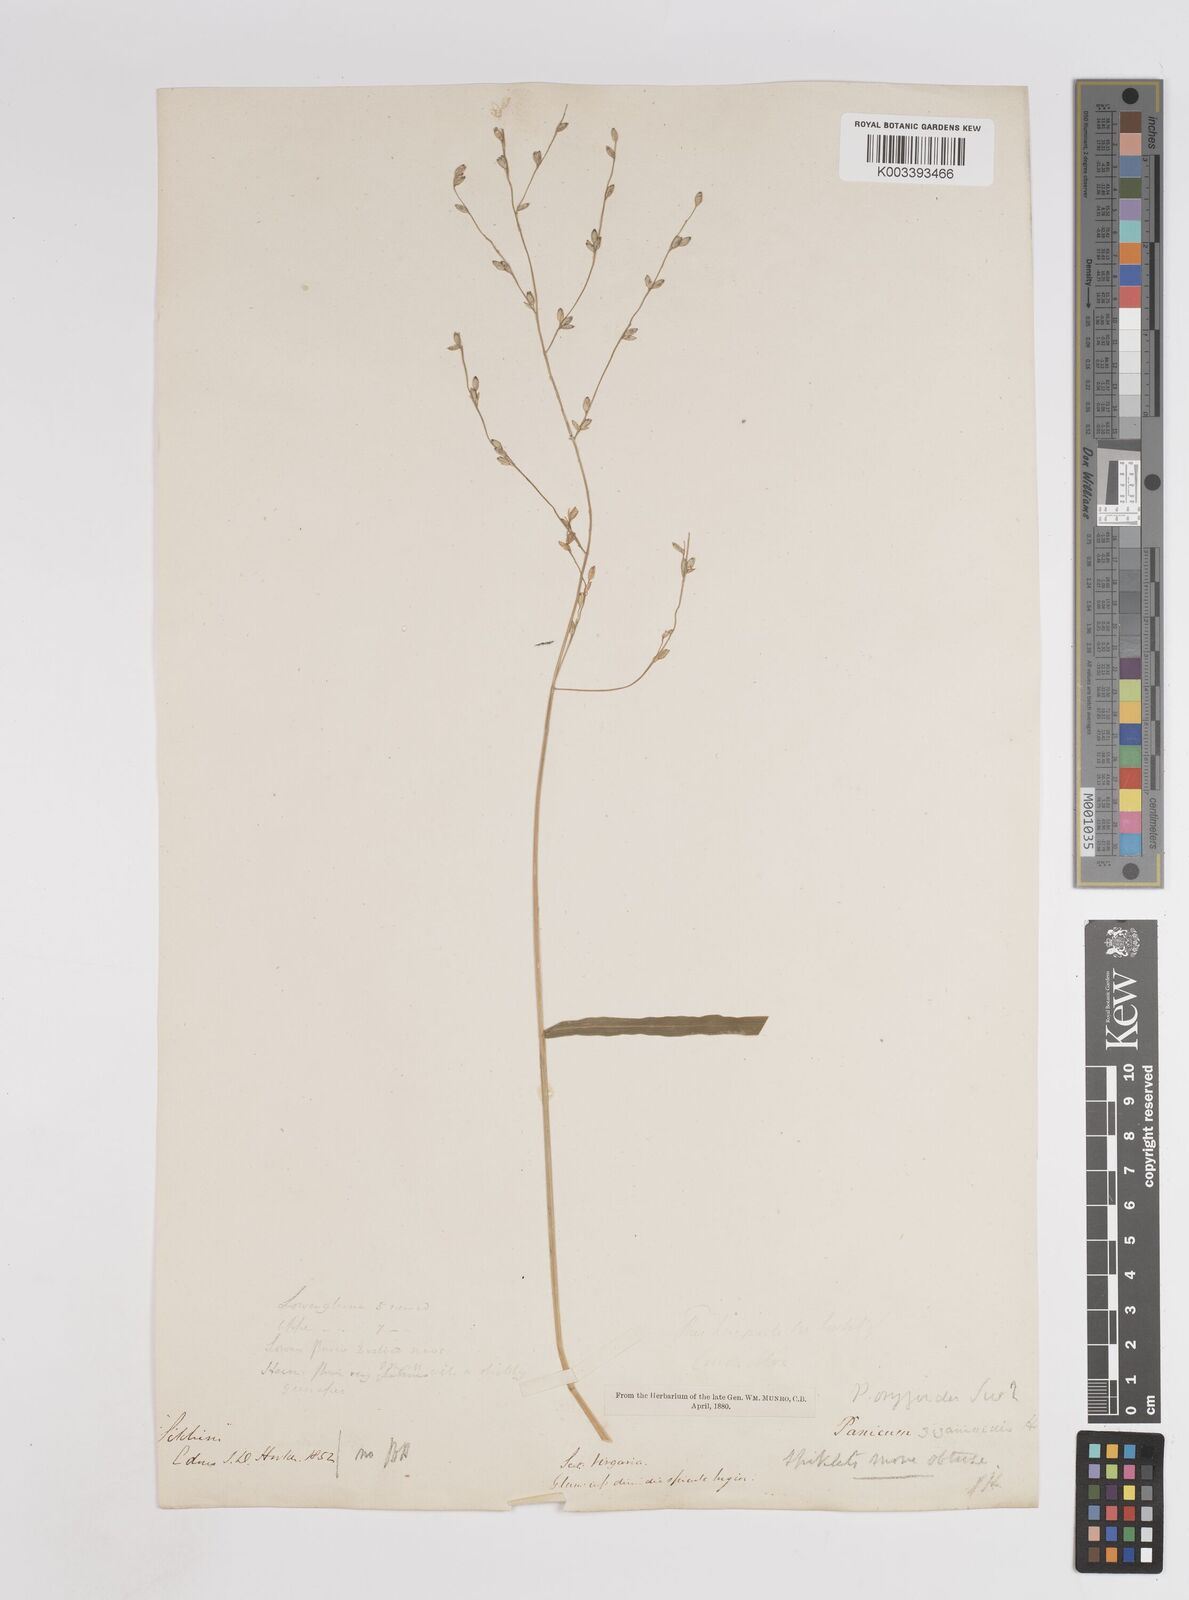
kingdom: Plantae
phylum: Tracheophyta
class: Liliopsida
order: Poales
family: Poaceae
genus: Panicum
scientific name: Panicum deustum
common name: Reed panicum
